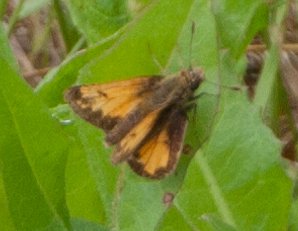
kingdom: Animalia
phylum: Arthropoda
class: Insecta
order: Lepidoptera
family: Hesperiidae
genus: Lon
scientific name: Lon hobomok
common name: Hobomok Skipper
